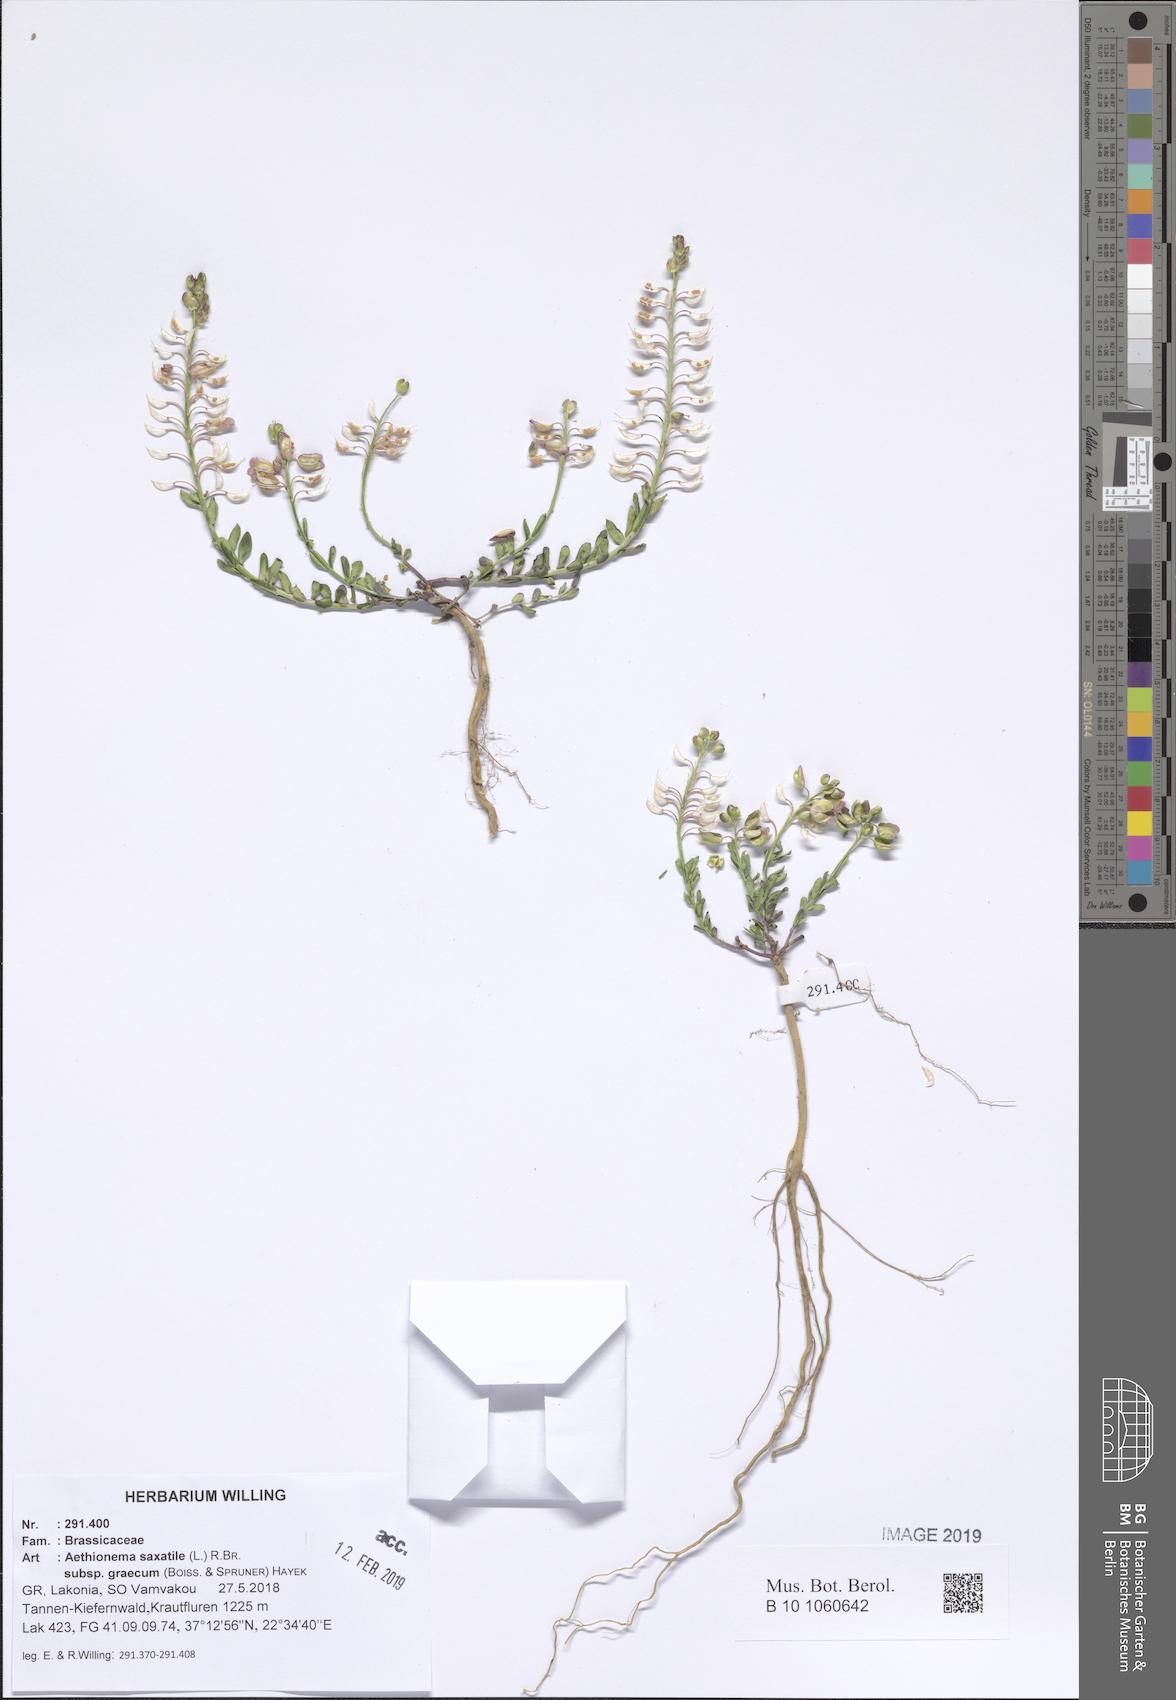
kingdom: Plantae
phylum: Tracheophyta
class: Magnoliopsida
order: Brassicales
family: Brassicaceae
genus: Aethionema
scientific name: Aethionema saxatile
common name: Burnt candytuft
